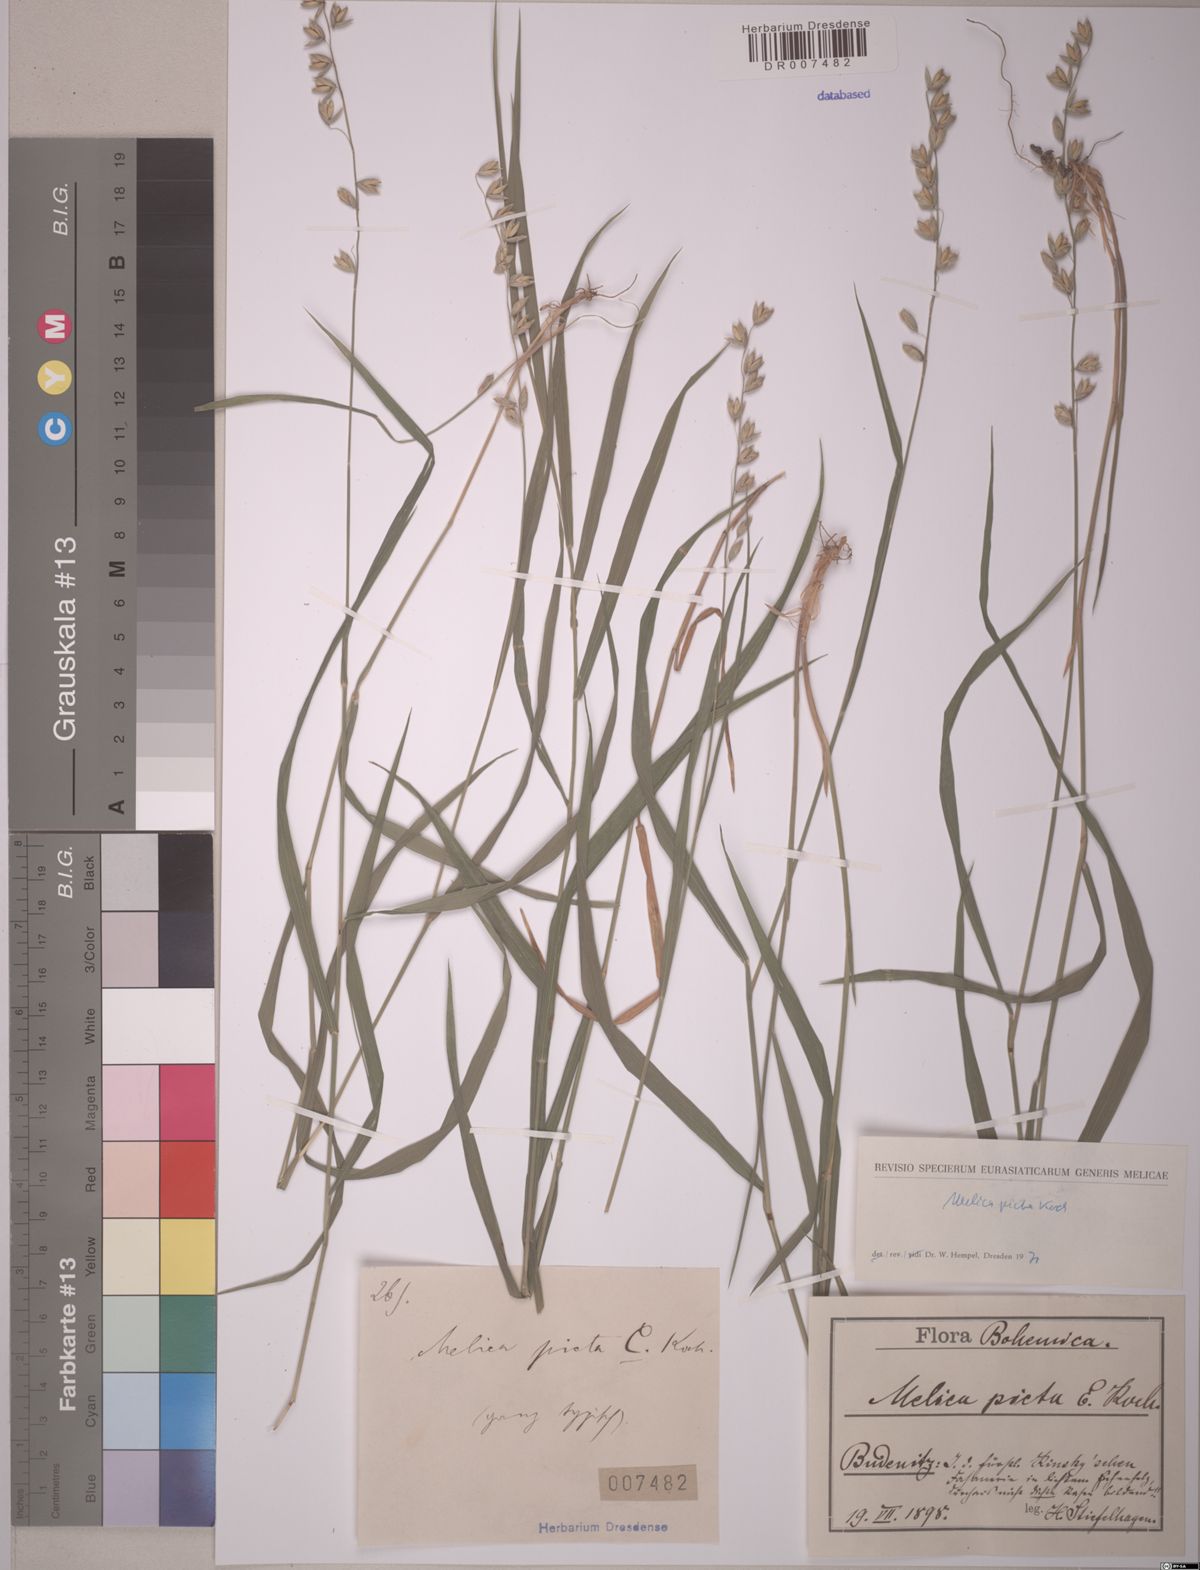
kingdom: Plantae
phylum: Tracheophyta
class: Liliopsida
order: Poales
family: Poaceae
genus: Melica
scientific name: Melica picta
